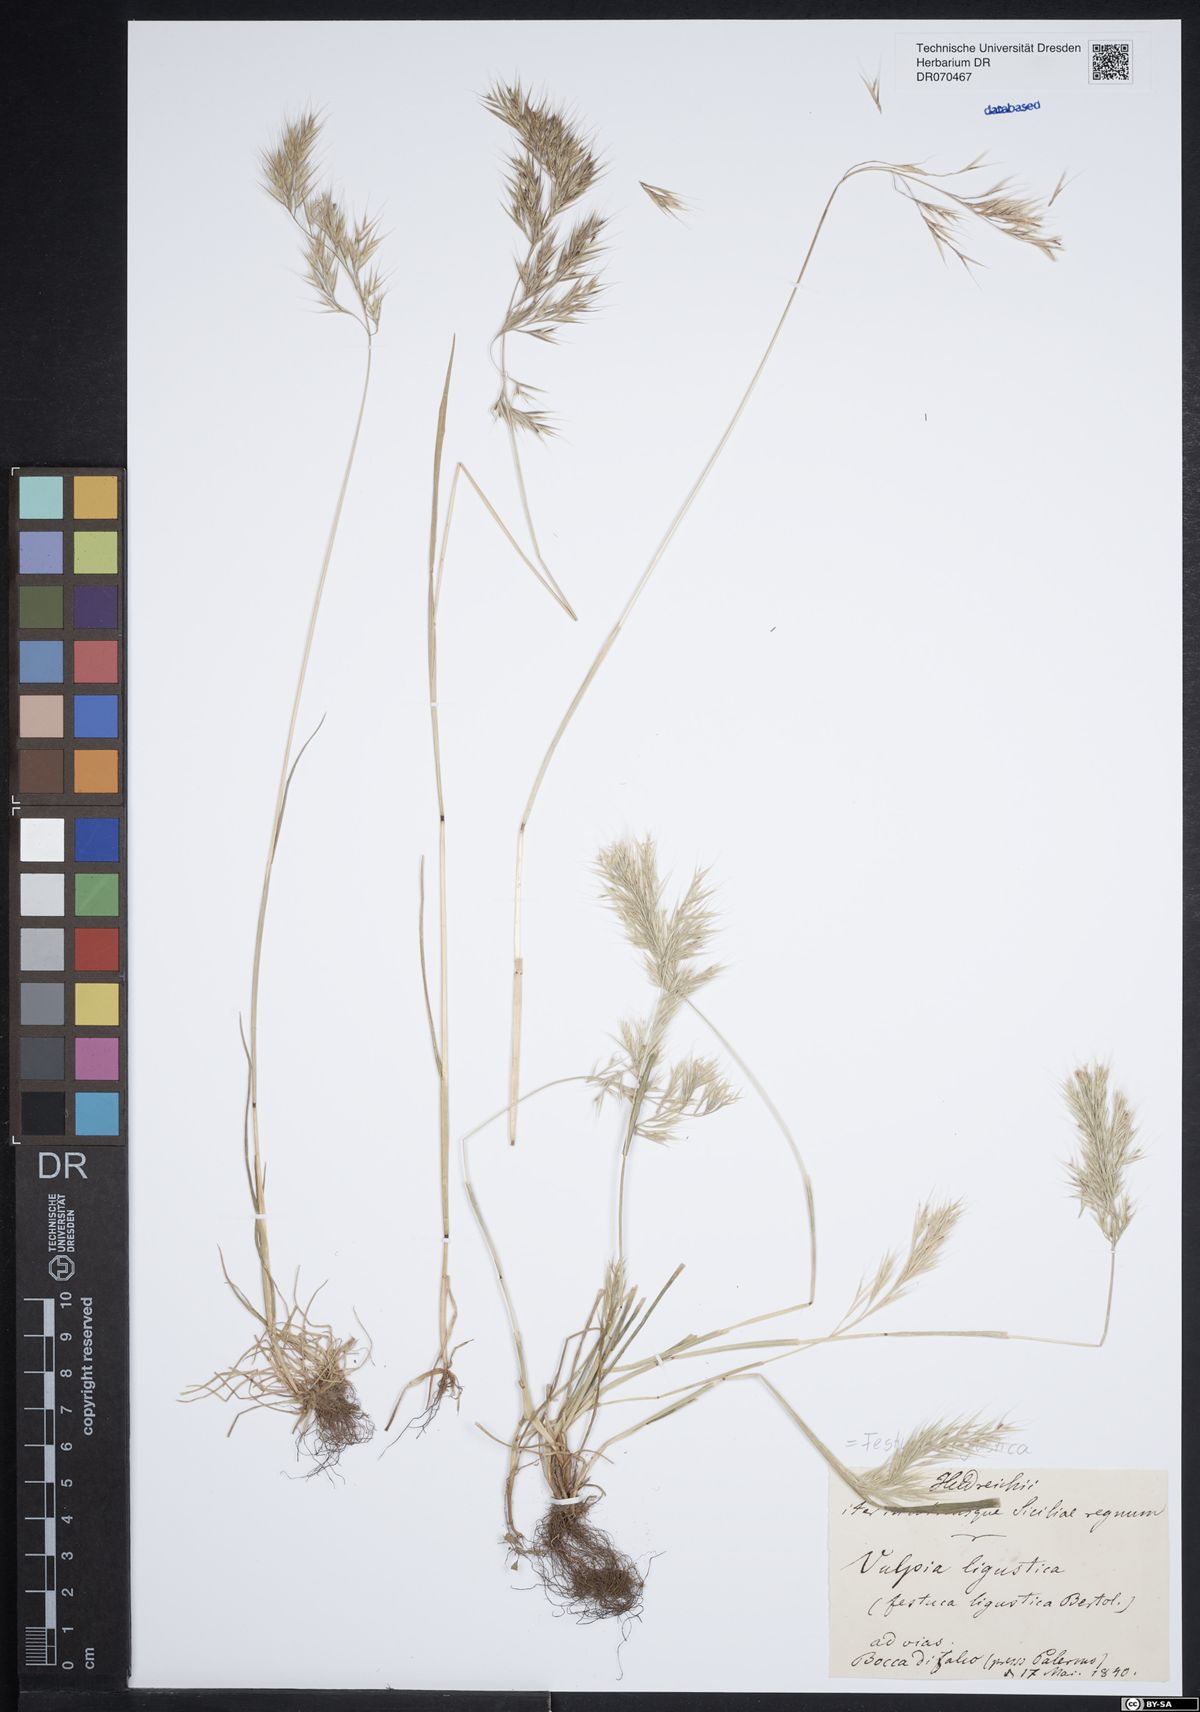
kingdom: Plantae
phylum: Tracheophyta
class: Liliopsida
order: Poales
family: Poaceae
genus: Festuca
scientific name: Festuca ligustica
